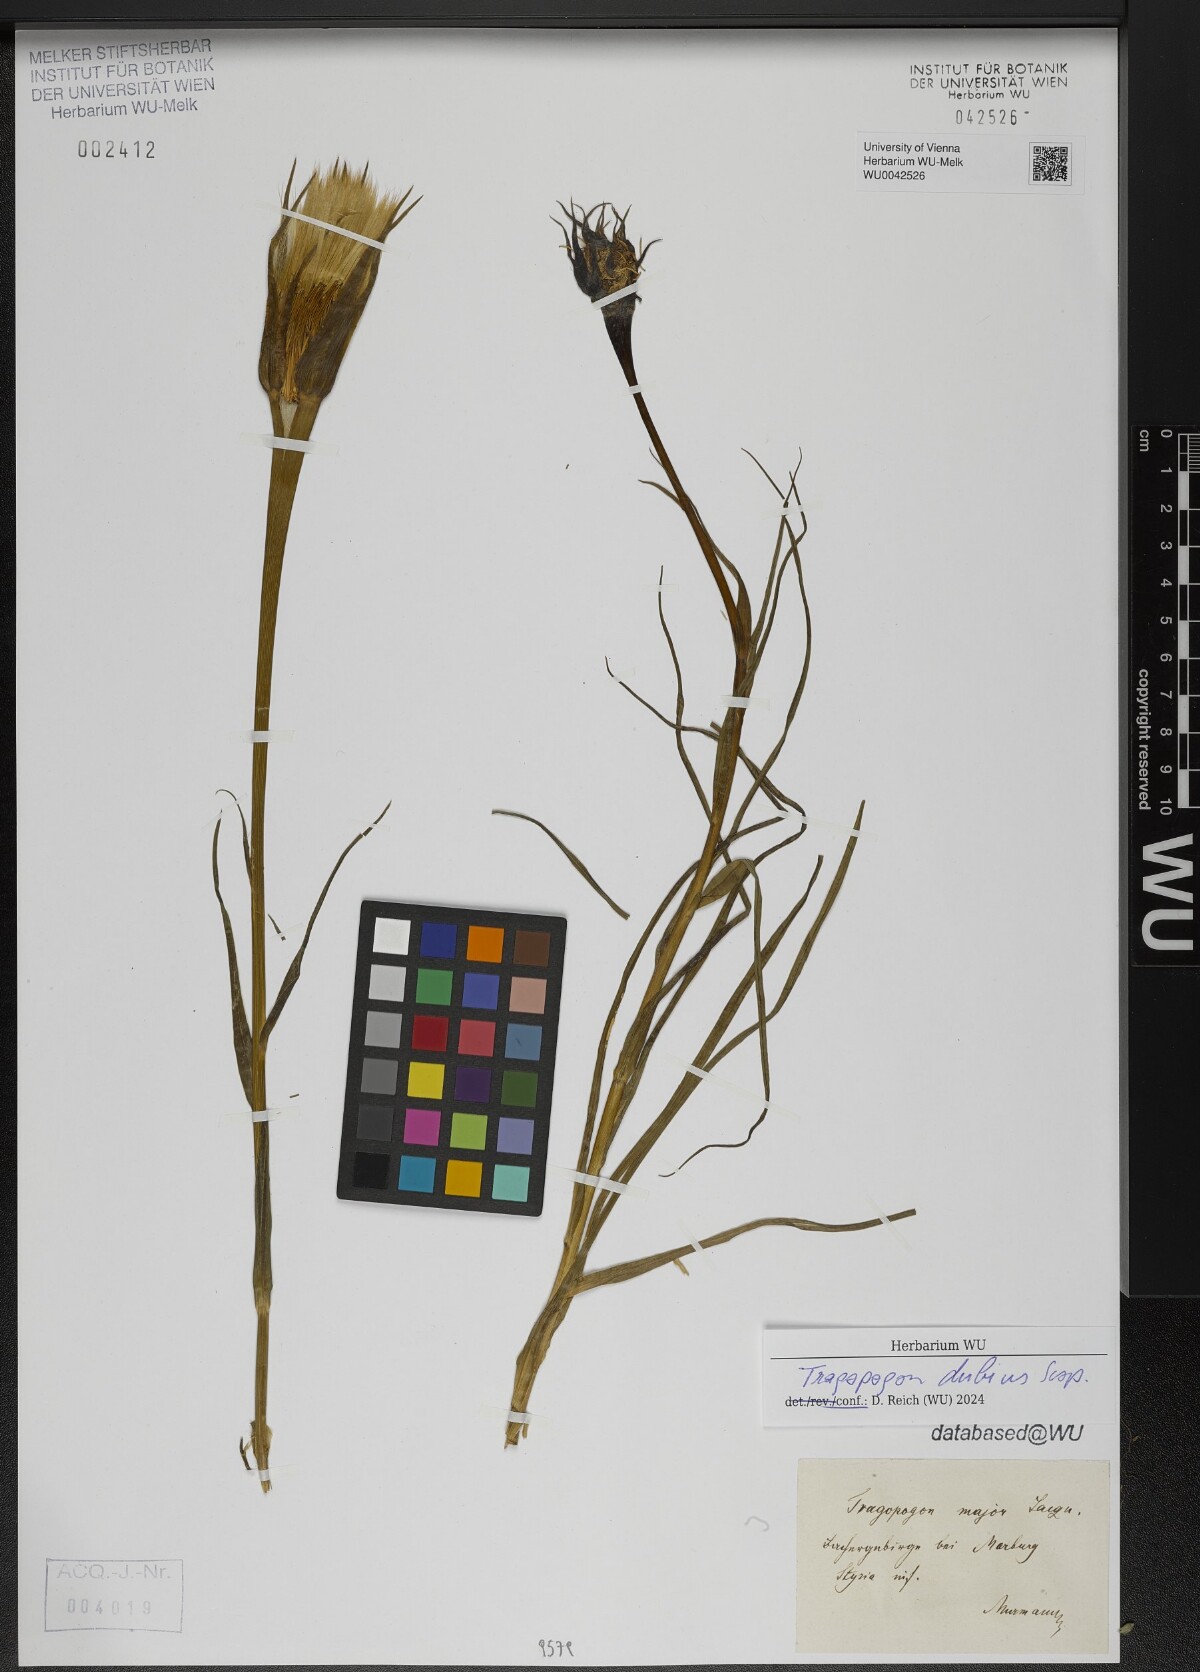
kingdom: Plantae
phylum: Tracheophyta
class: Magnoliopsida
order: Asterales
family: Asteraceae
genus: Tragopogon
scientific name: Tragopogon dubius
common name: Yellow salsify
